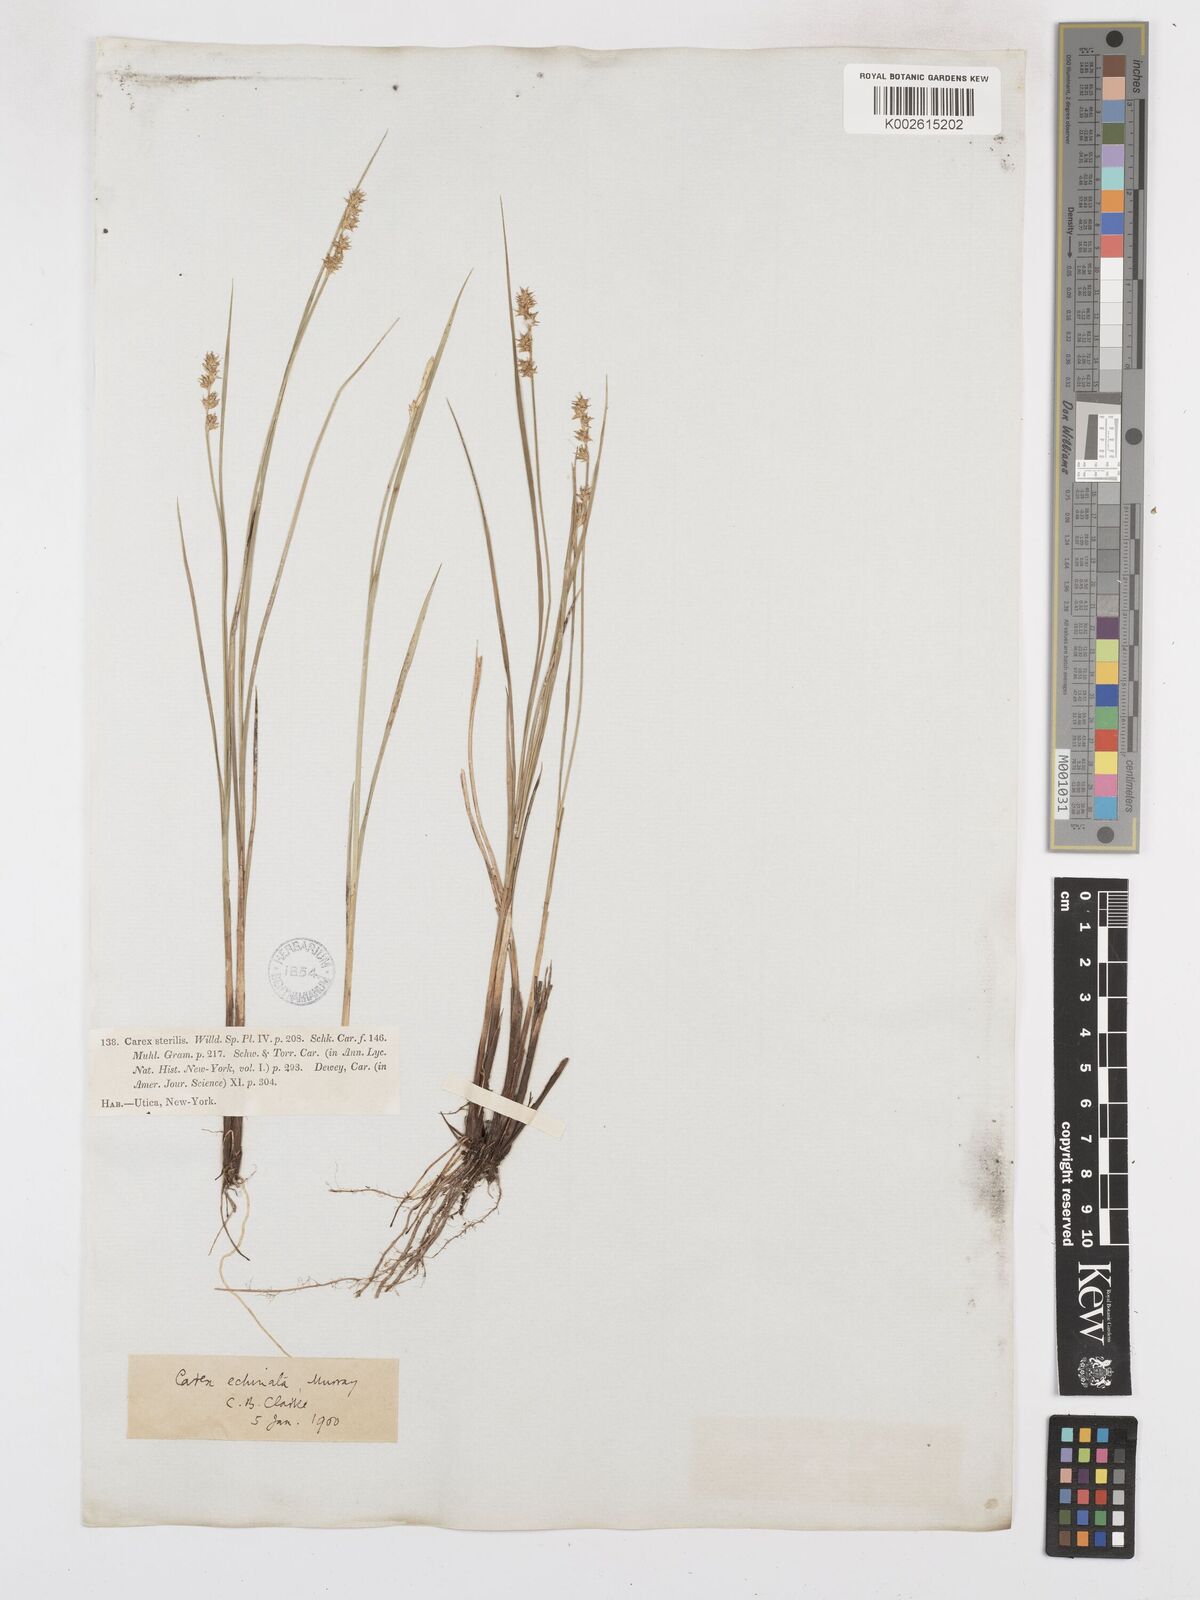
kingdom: Plantae
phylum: Tracheophyta
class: Liliopsida
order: Poales
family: Cyperaceae
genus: Carex
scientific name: Carex echinata
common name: Star sedge
